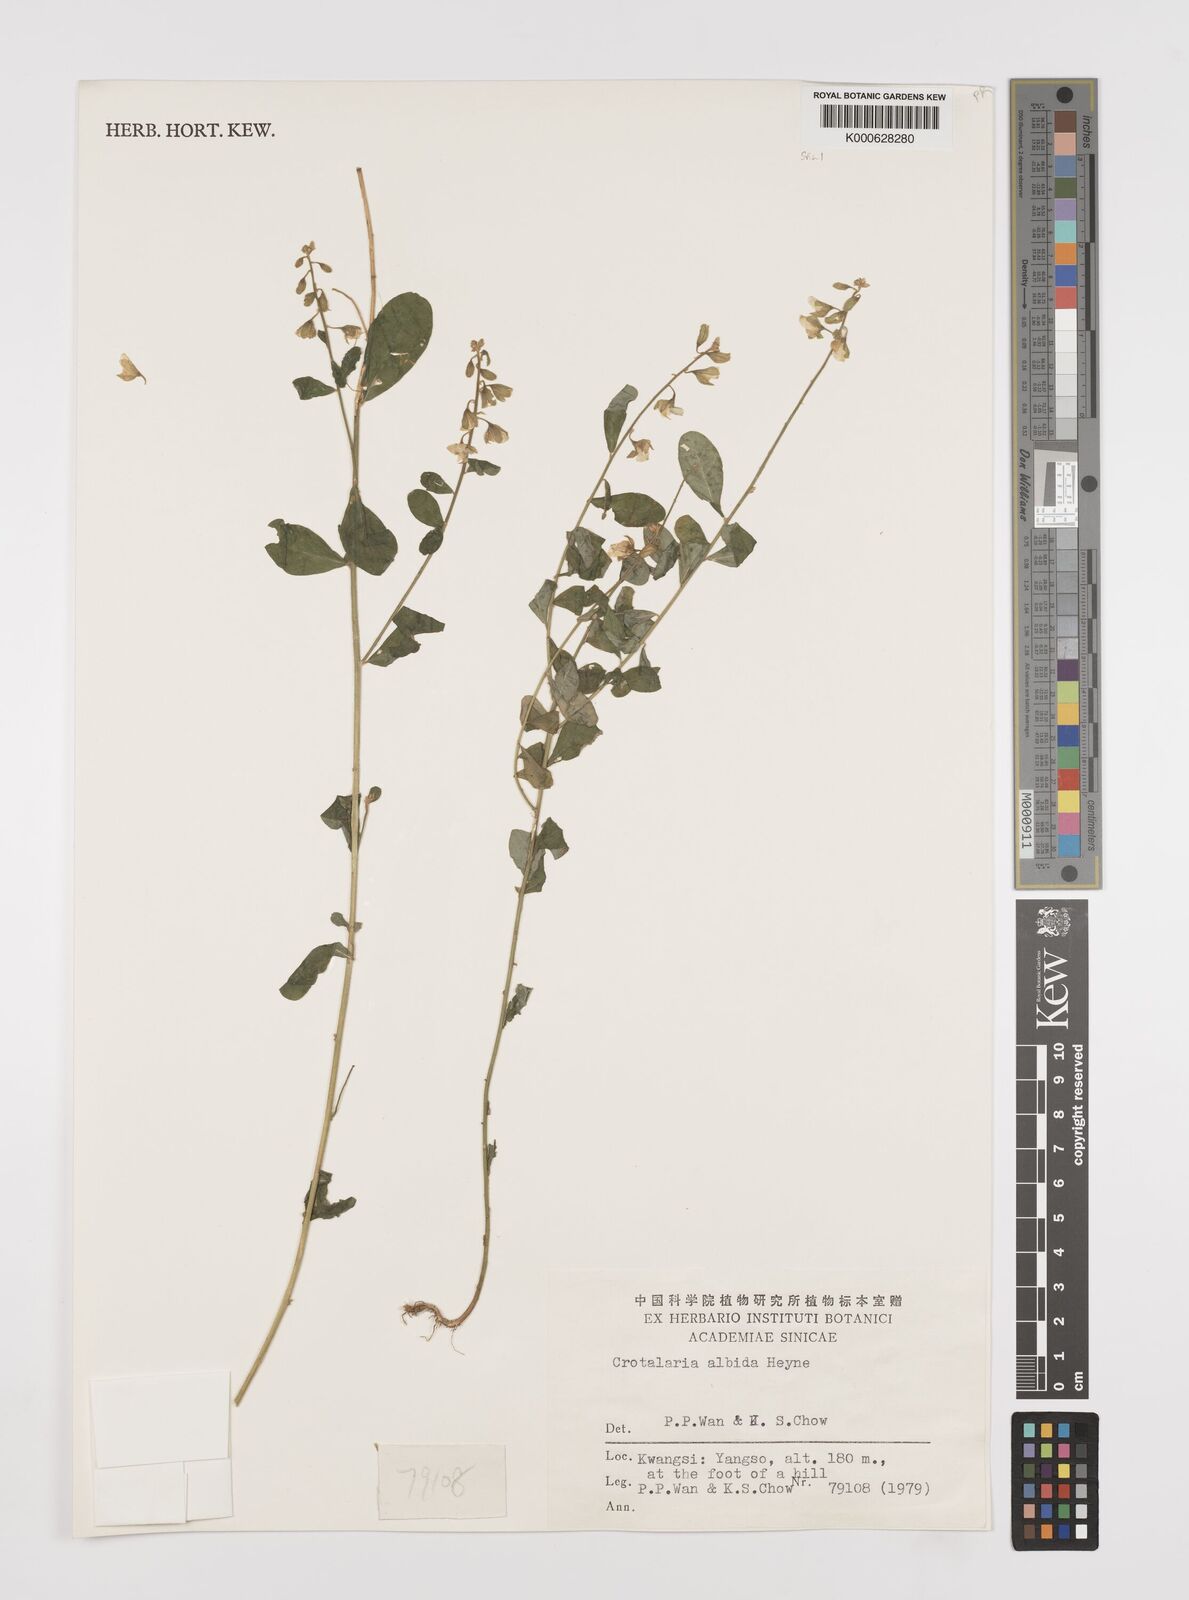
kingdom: Plantae
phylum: Tracheophyta
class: Magnoliopsida
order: Fabales
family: Fabaceae
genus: Crotalaria
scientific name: Crotalaria albida
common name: Taiwan crotalaria
